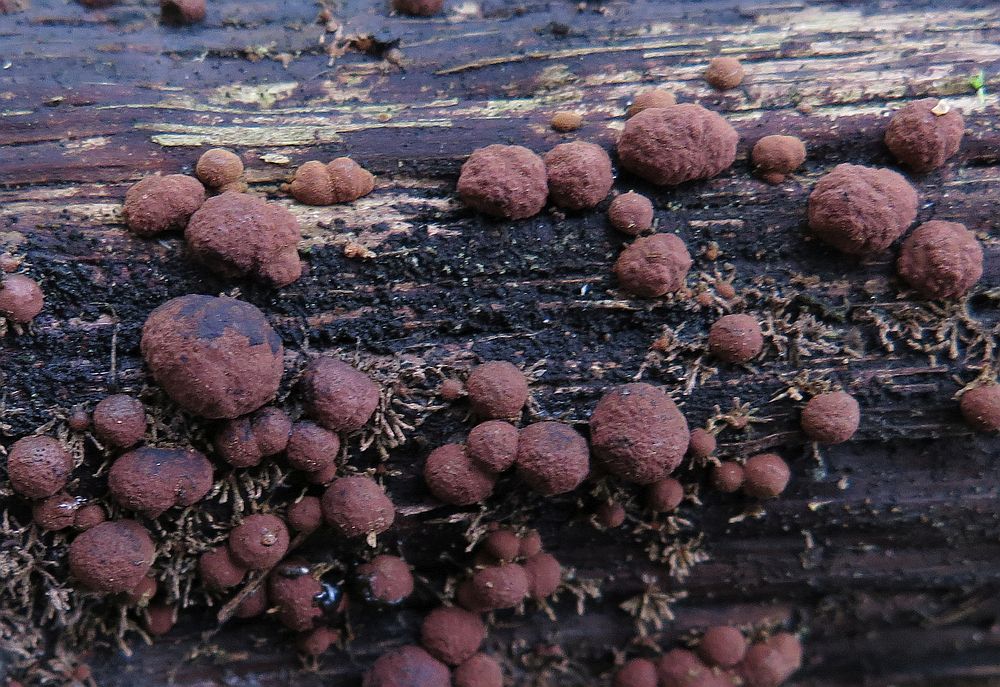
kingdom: Fungi
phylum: Ascomycota
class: Sordariomycetes
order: Xylariales
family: Hypoxylaceae
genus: Hypoxylon
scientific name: Hypoxylon howeanum
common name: halvkugleformet kulbær
